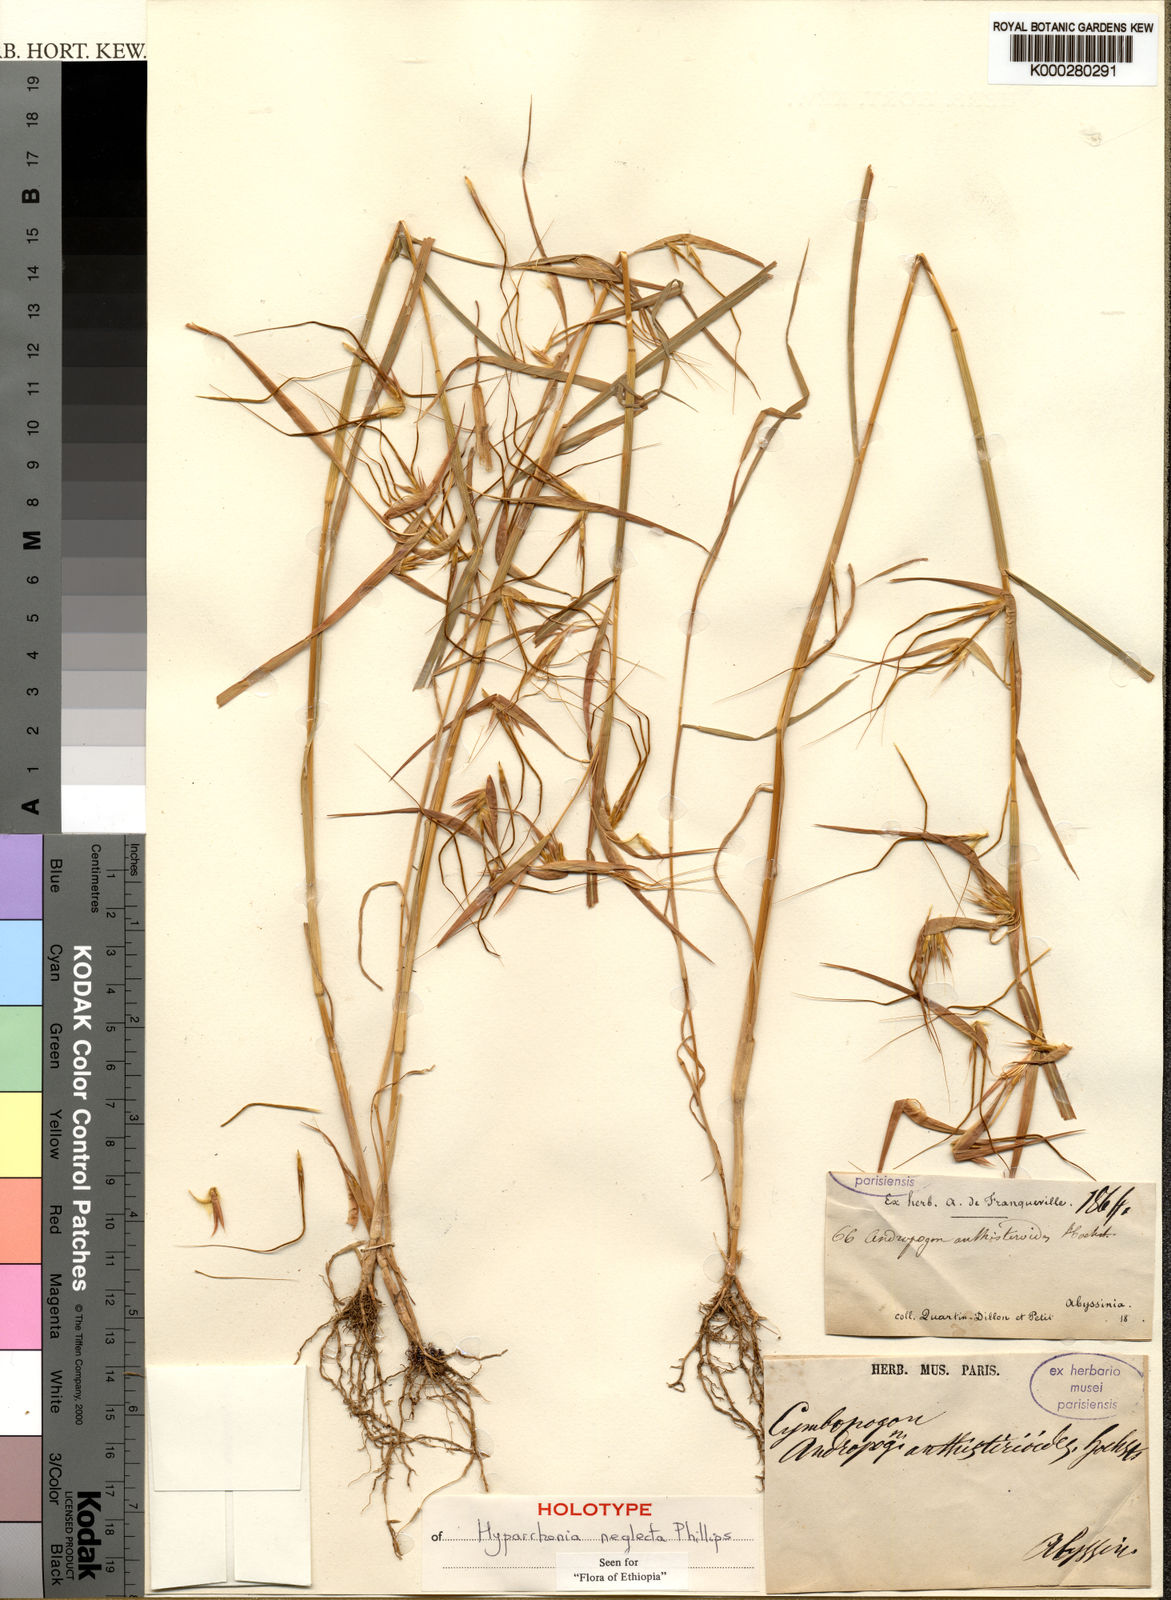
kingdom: Plantae
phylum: Tracheophyta
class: Liliopsida
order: Poales
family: Poaceae
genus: Hyparrhenia
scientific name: Hyparrhenia neglecta
